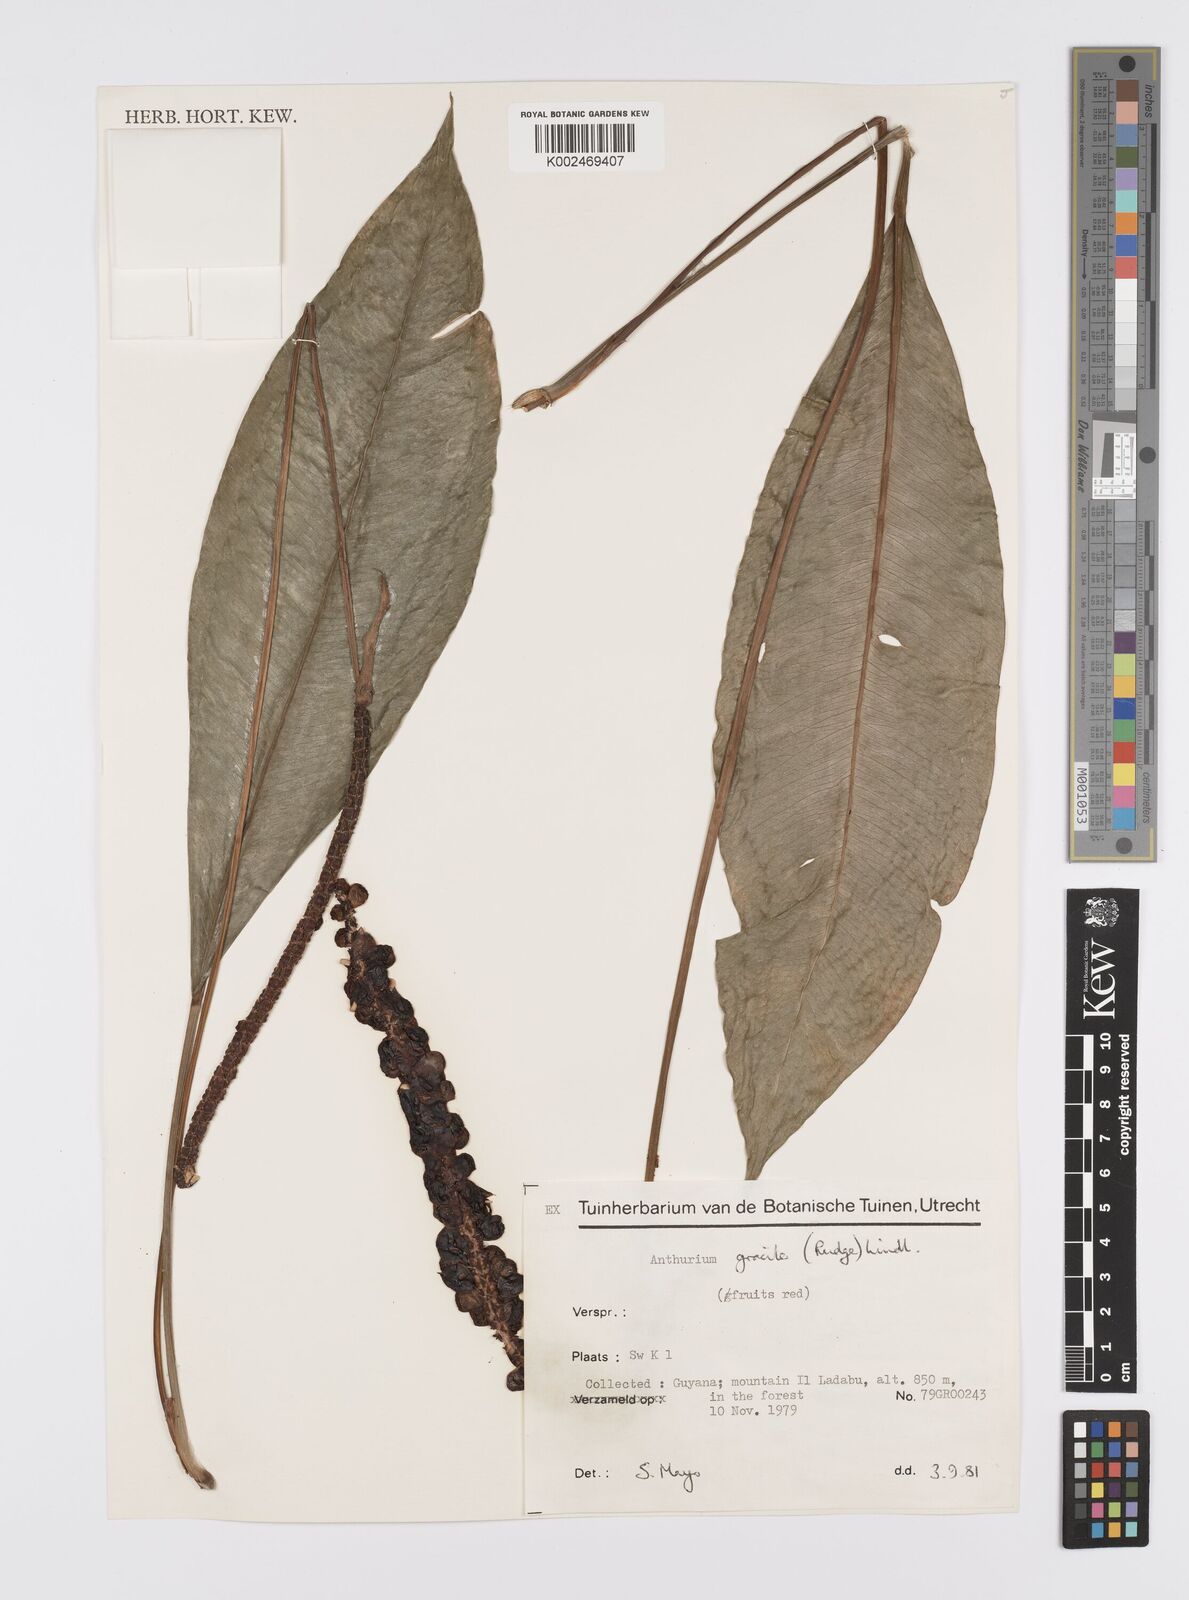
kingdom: Plantae
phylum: Tracheophyta
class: Liliopsida
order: Alismatales
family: Araceae
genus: Anthurium
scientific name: Anthurium gracile
